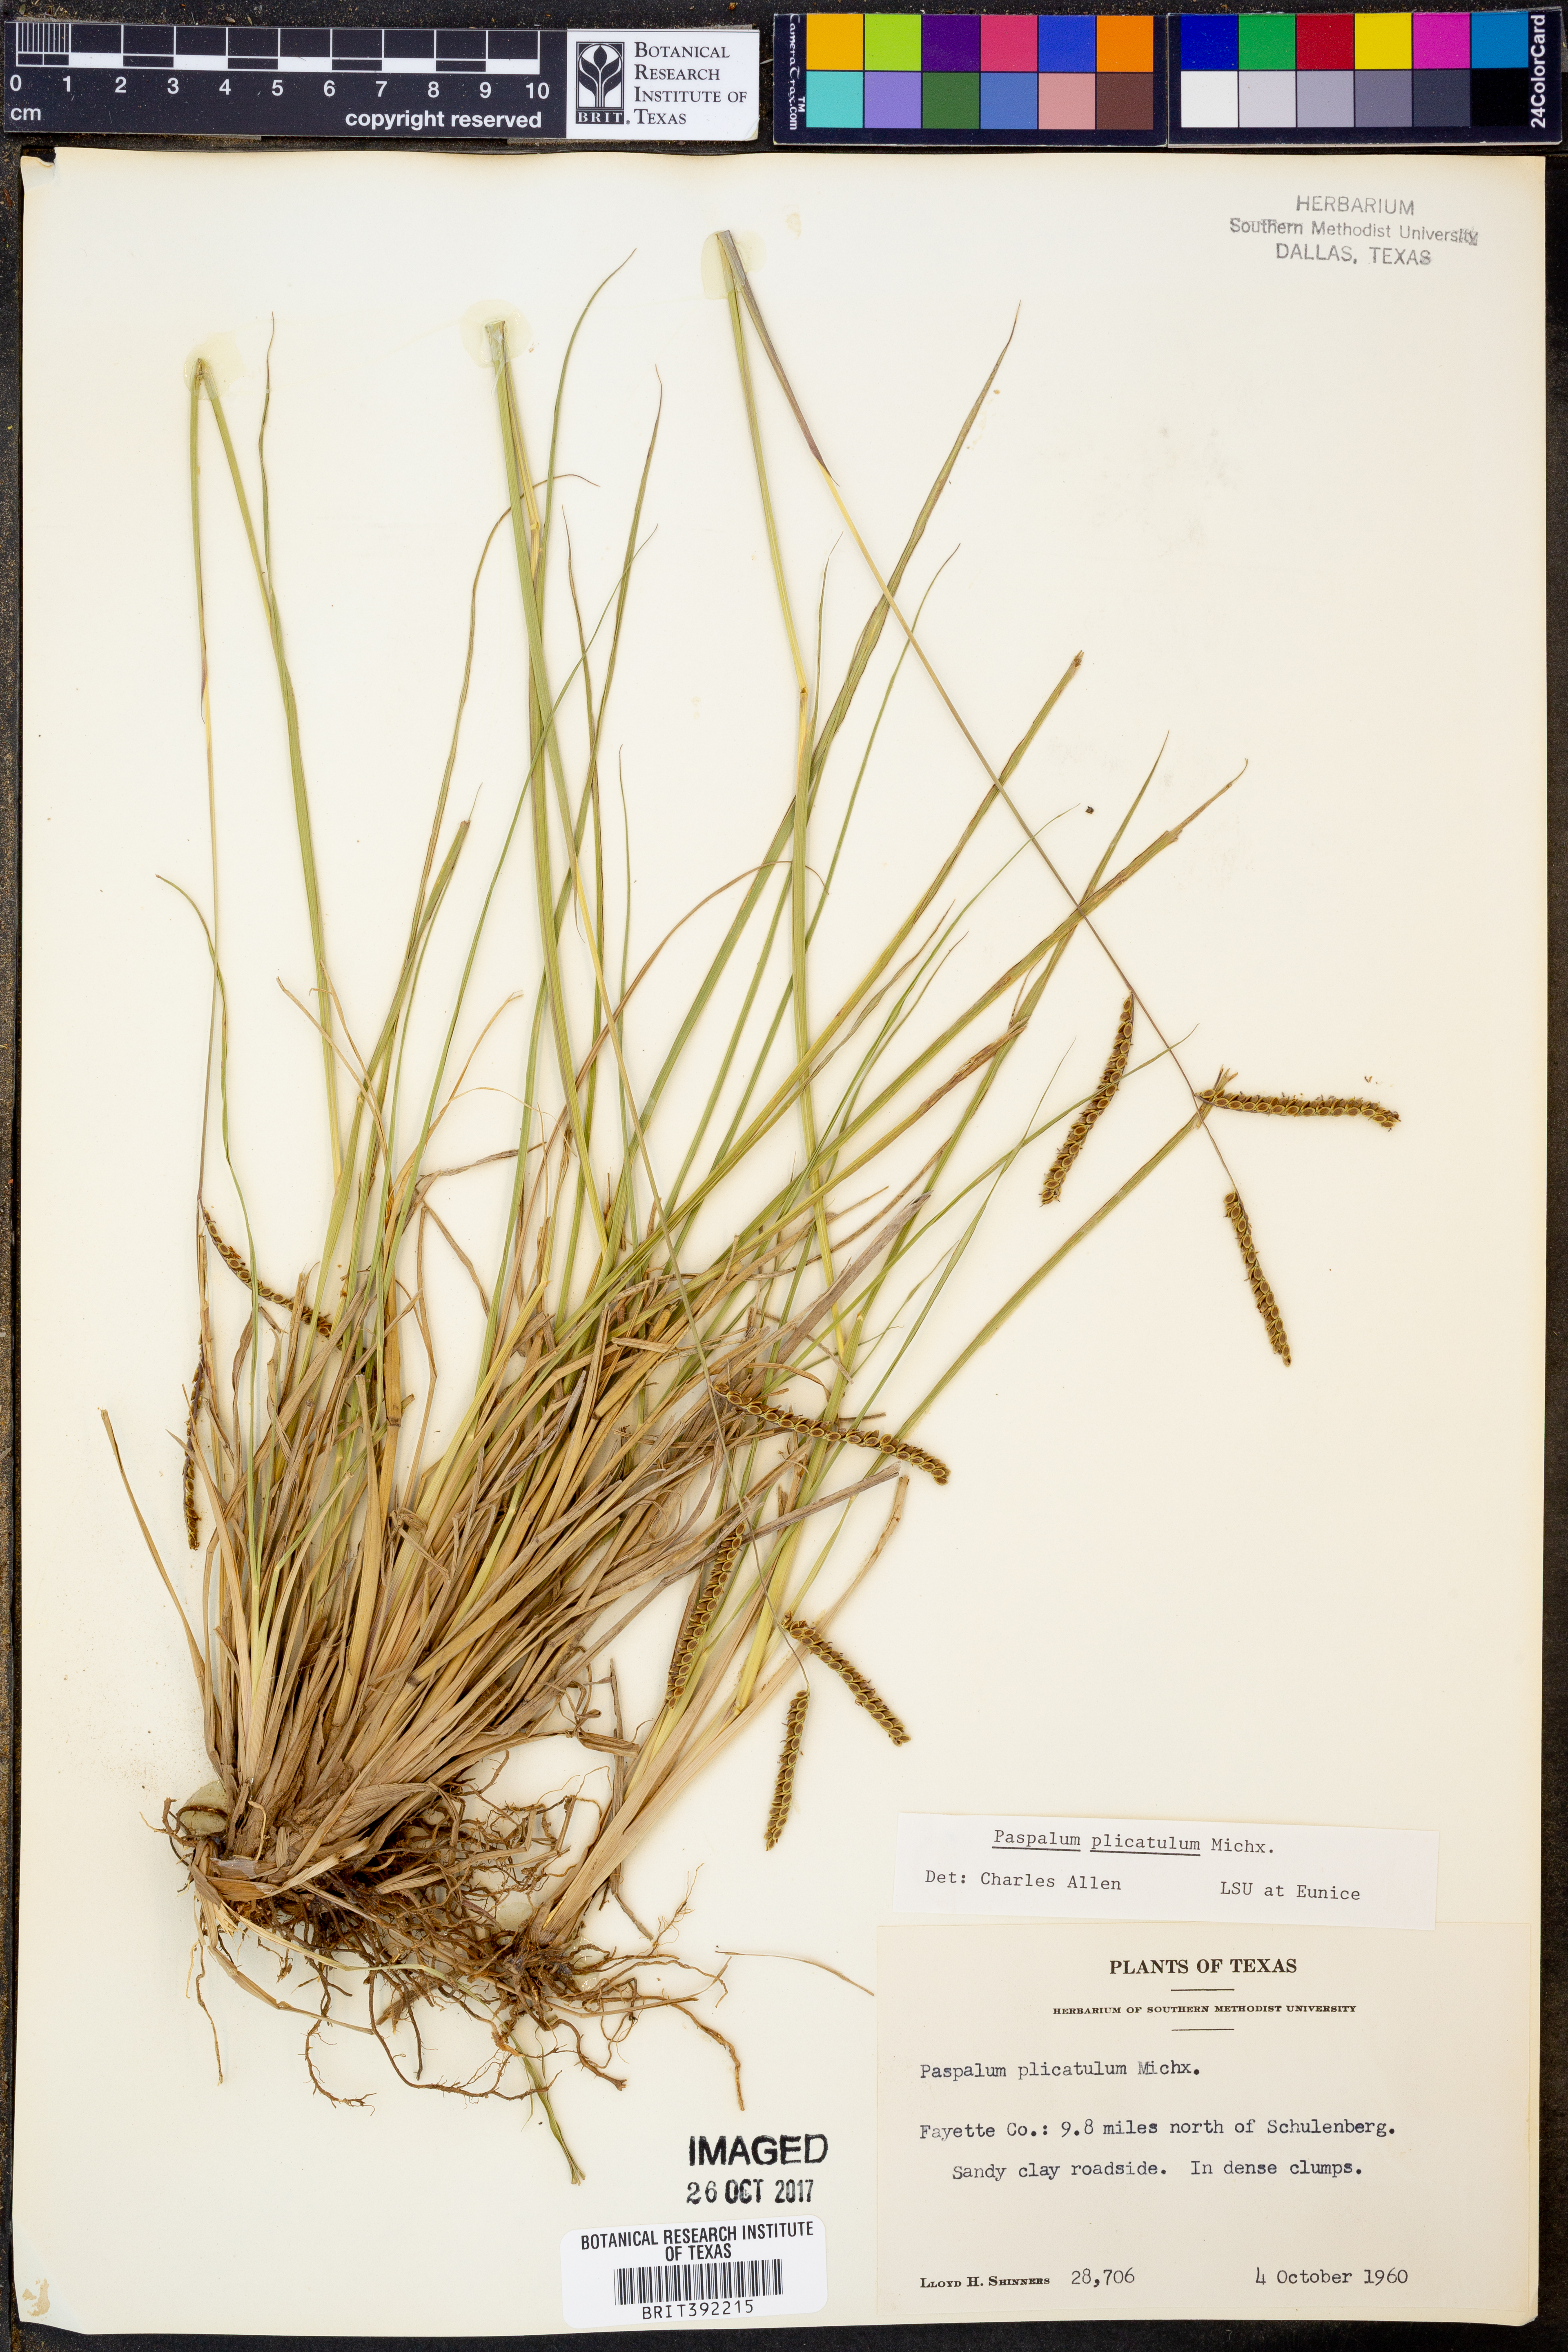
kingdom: Plantae
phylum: Tracheophyta
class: Liliopsida
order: Poales
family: Poaceae
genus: Paspalum
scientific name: Paspalum plicatulum
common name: Top paspalum
